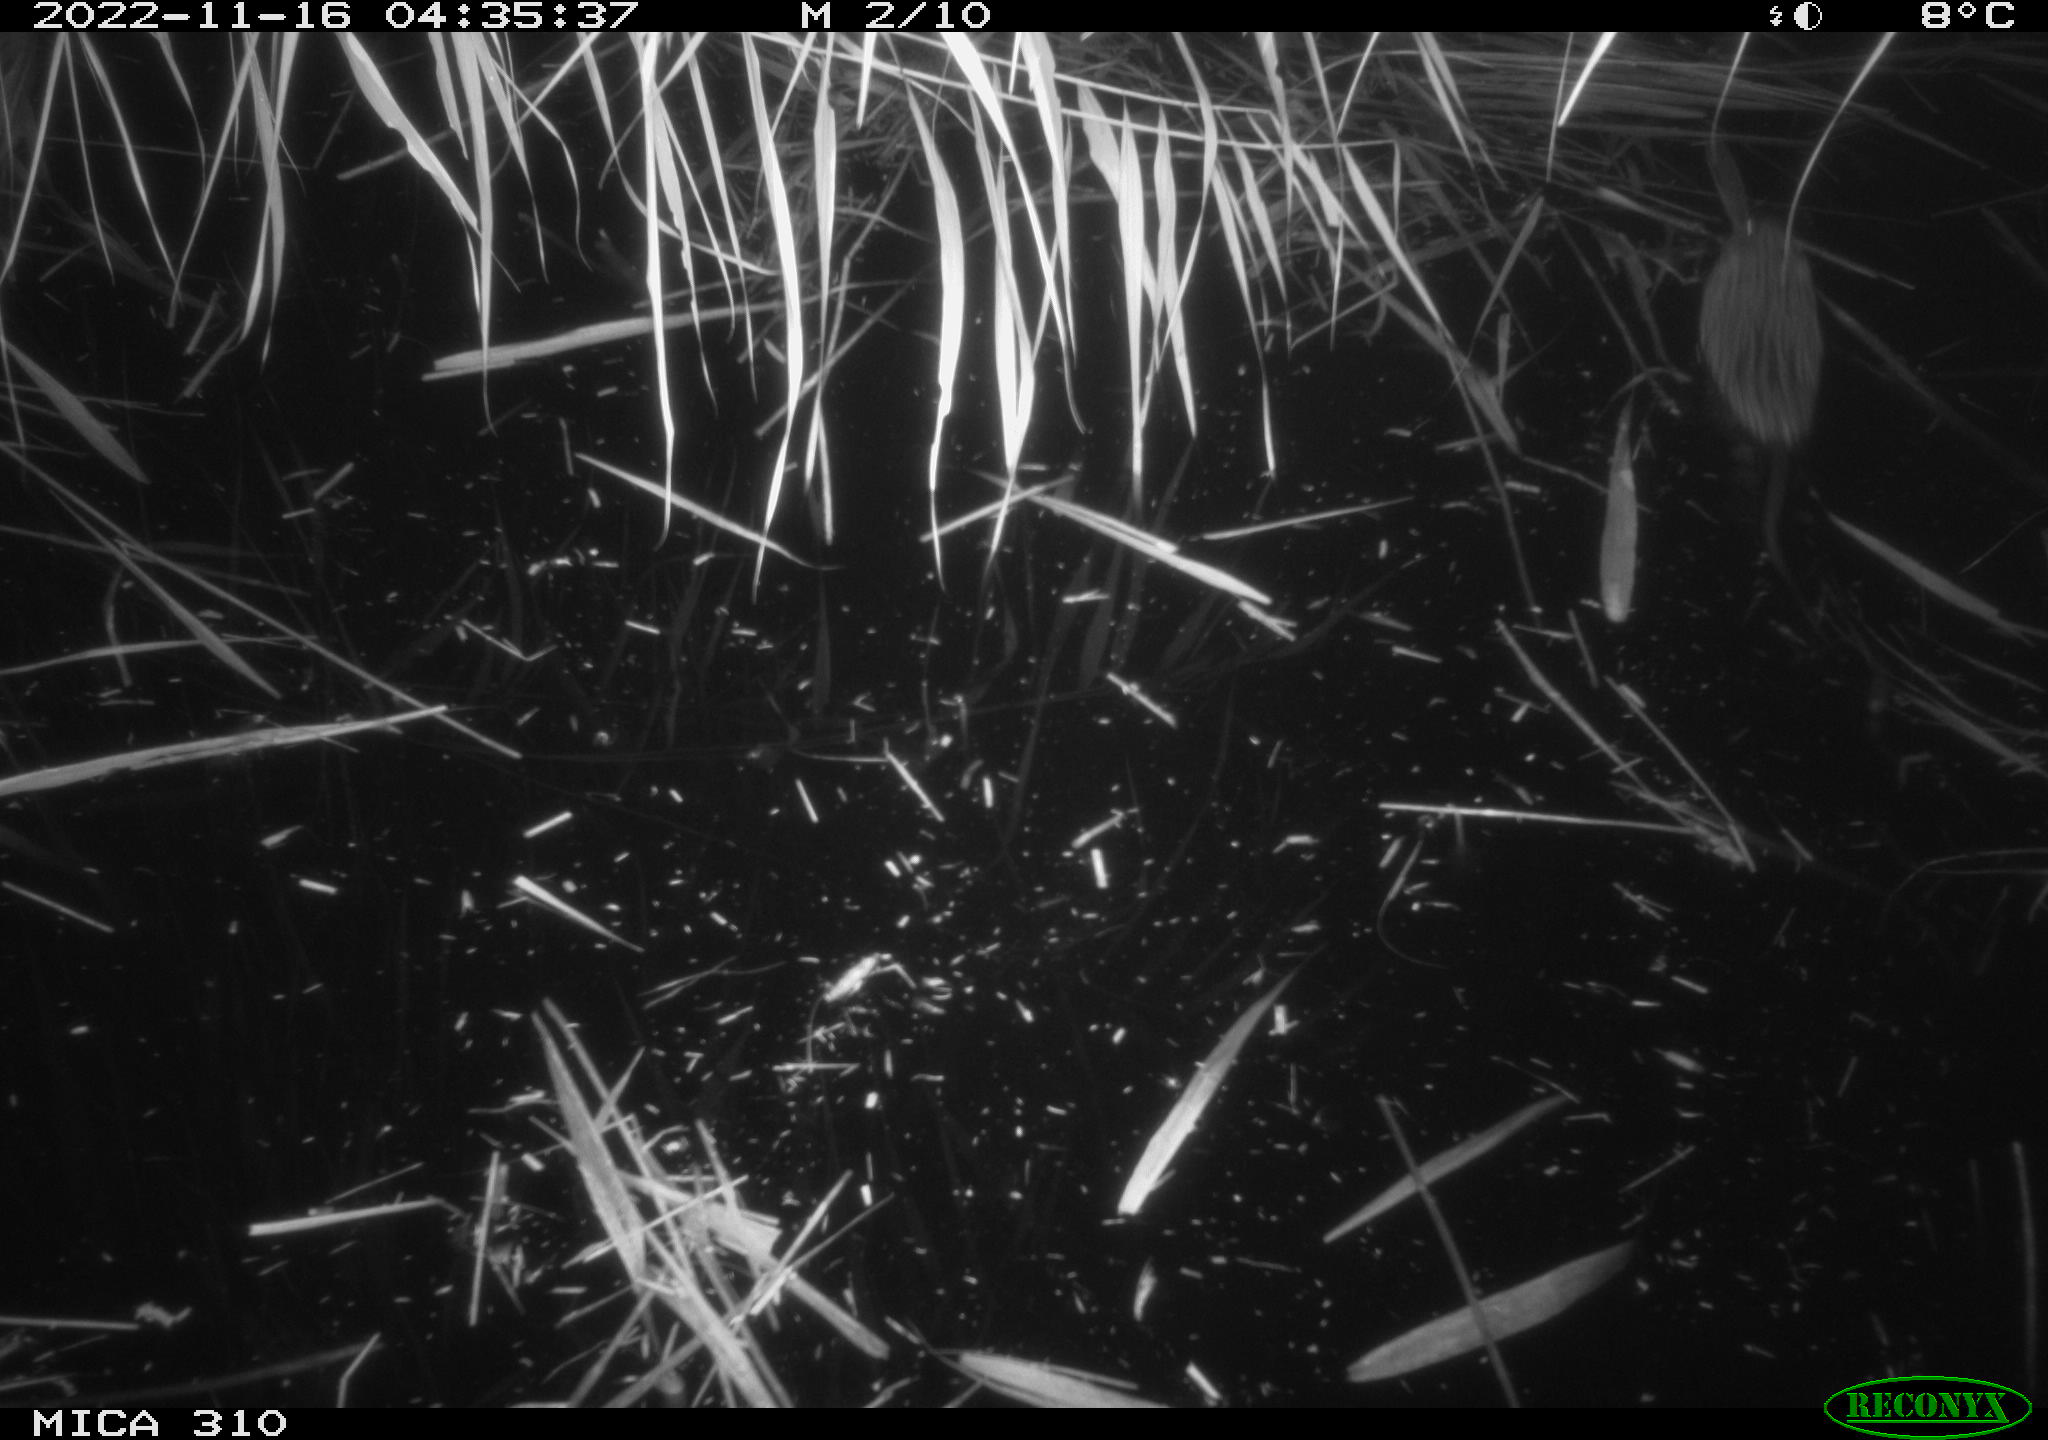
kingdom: Animalia
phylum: Chordata
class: Mammalia
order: Rodentia
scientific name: Rodentia
